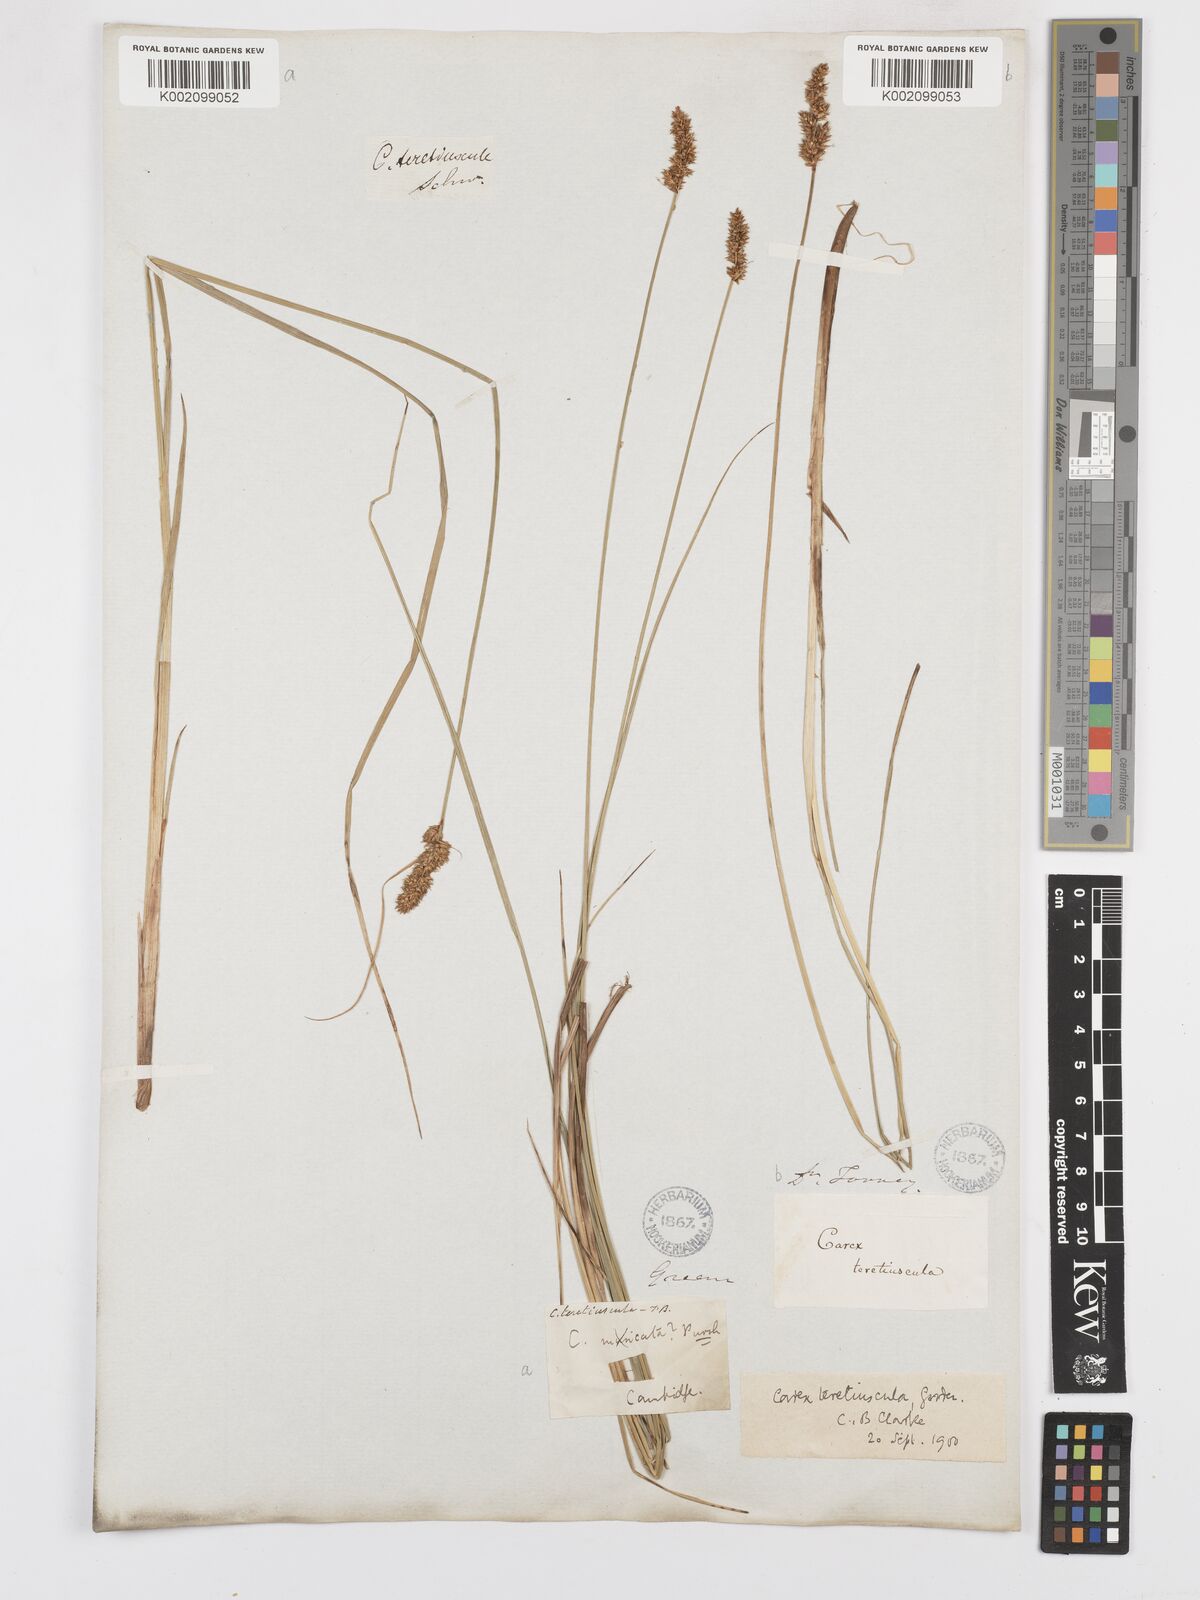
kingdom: Plantae
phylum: Tracheophyta
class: Liliopsida
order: Poales
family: Cyperaceae
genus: Carex
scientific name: Carex diandra
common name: Lesser tussock-sedge
